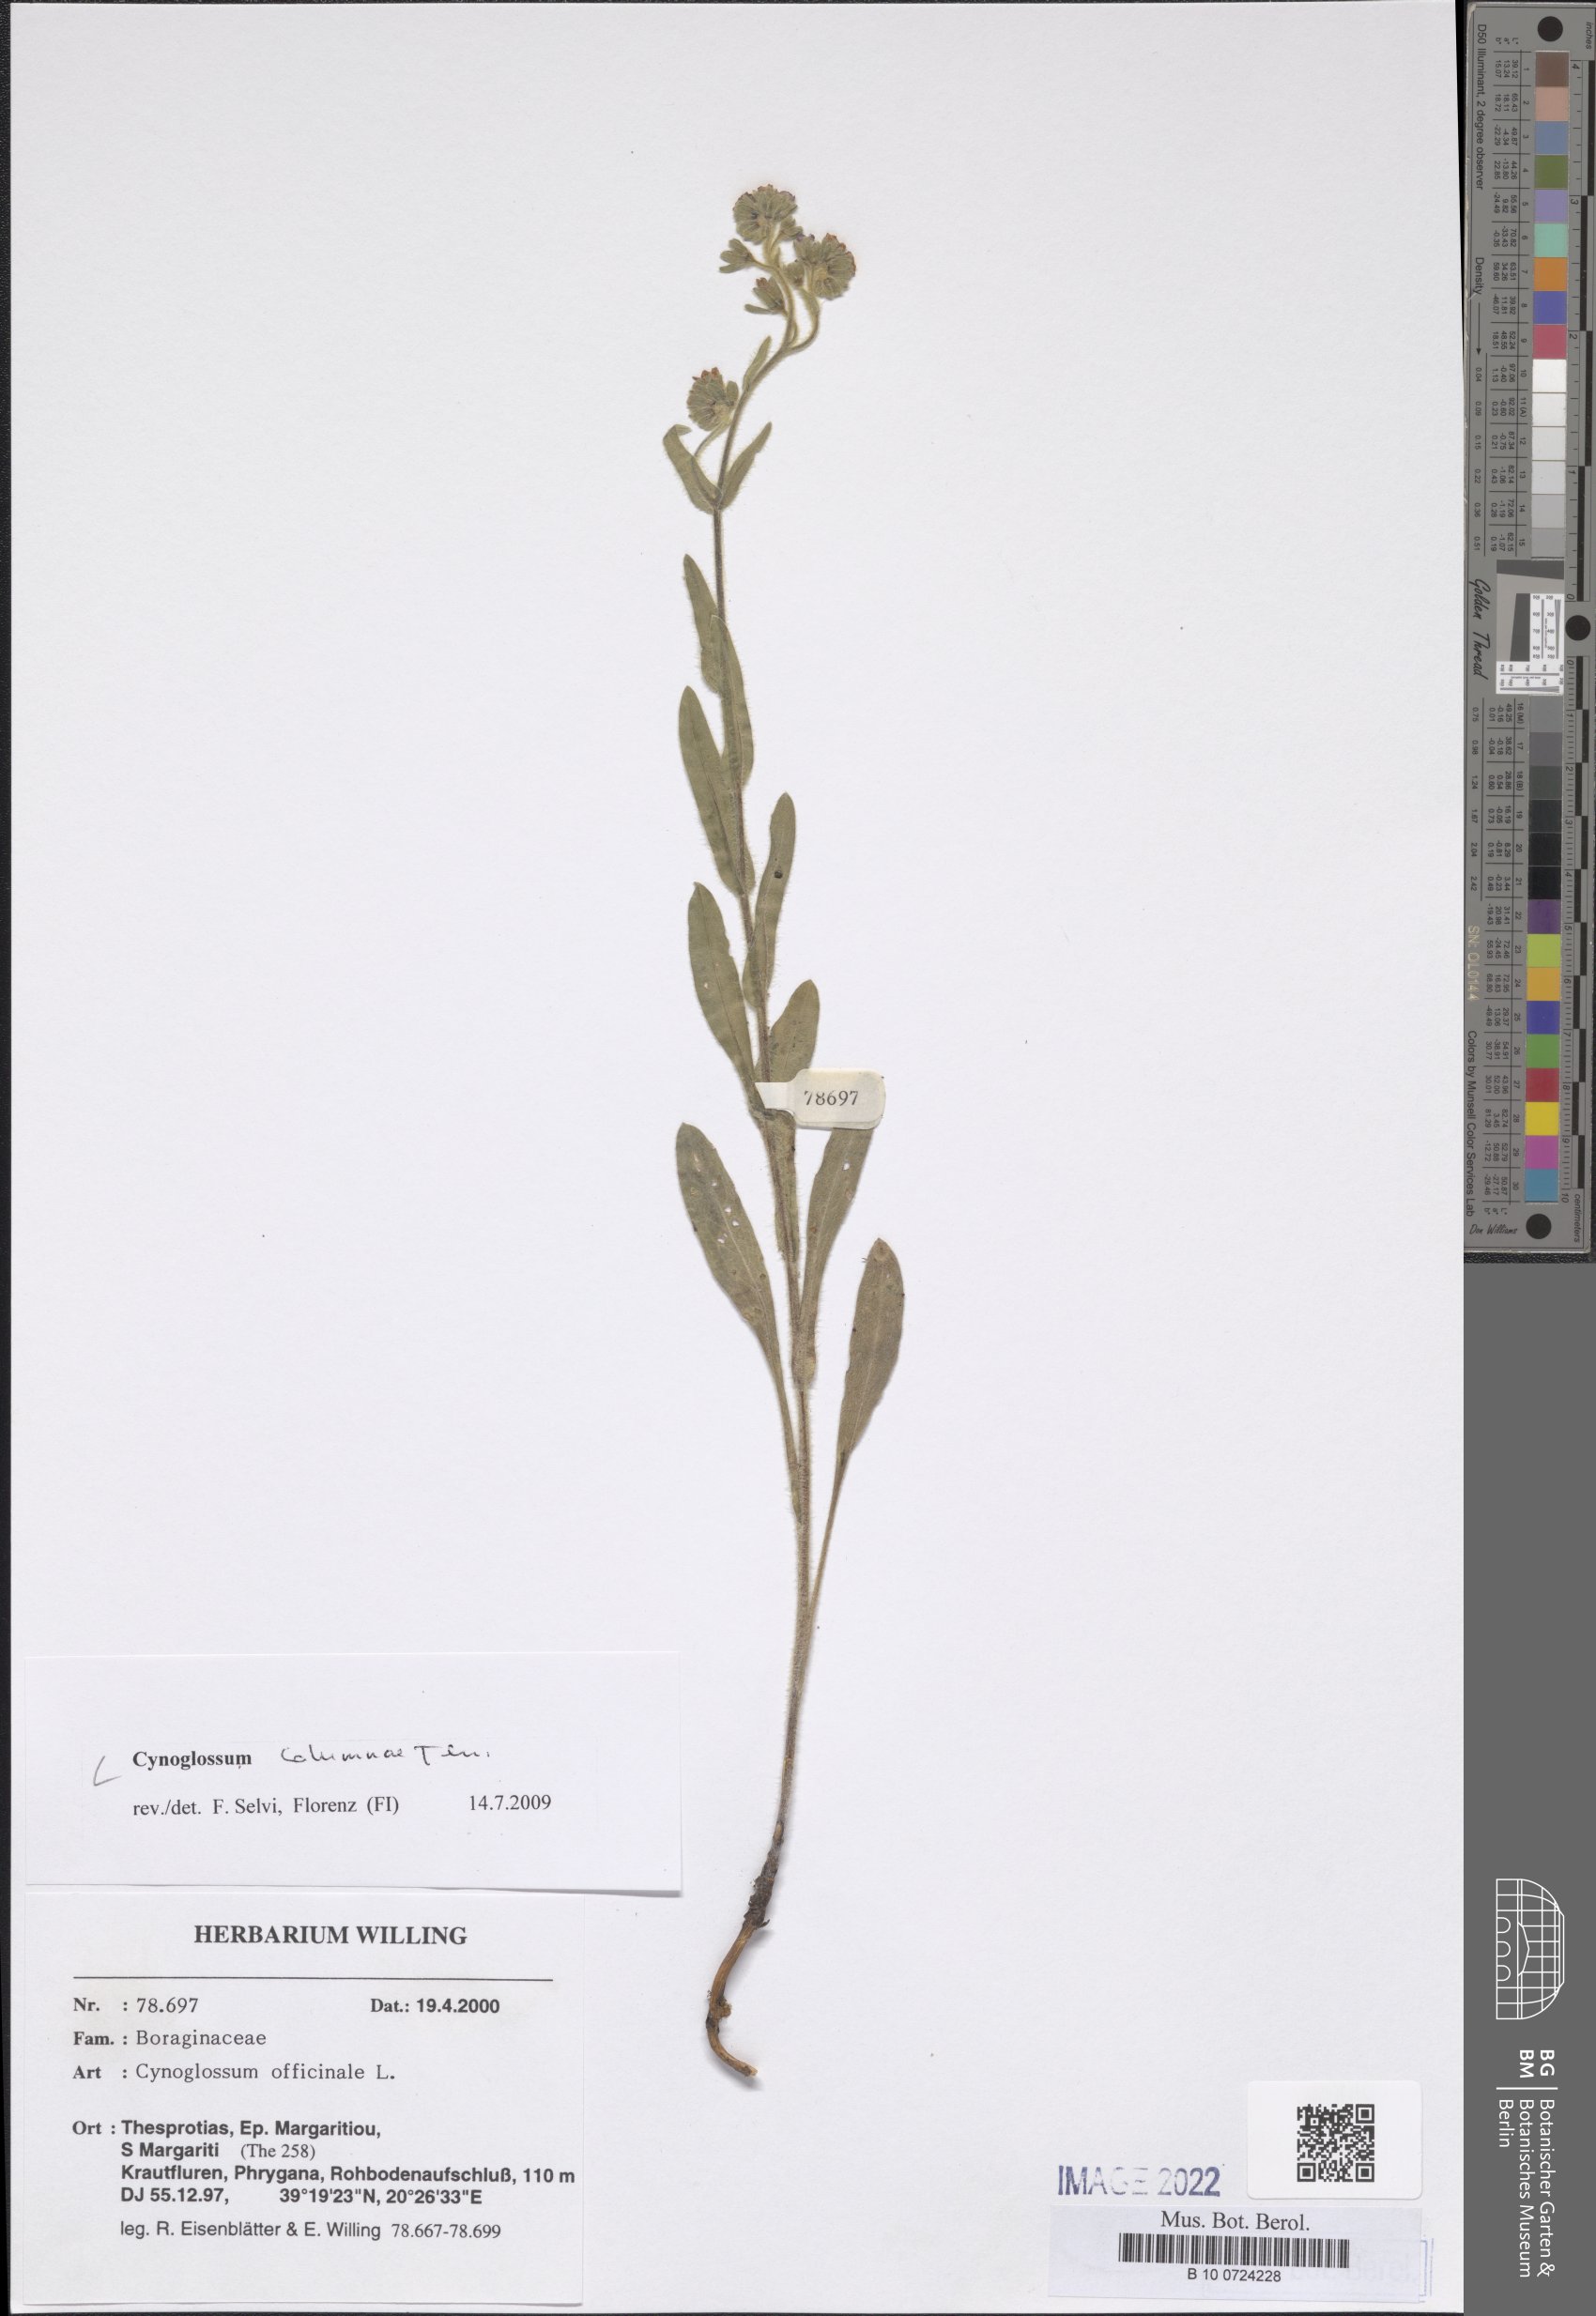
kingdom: Plantae
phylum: Tracheophyta
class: Magnoliopsida
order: Boraginales
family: Boraginaceae
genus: Rindera
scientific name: Rindera columnae
